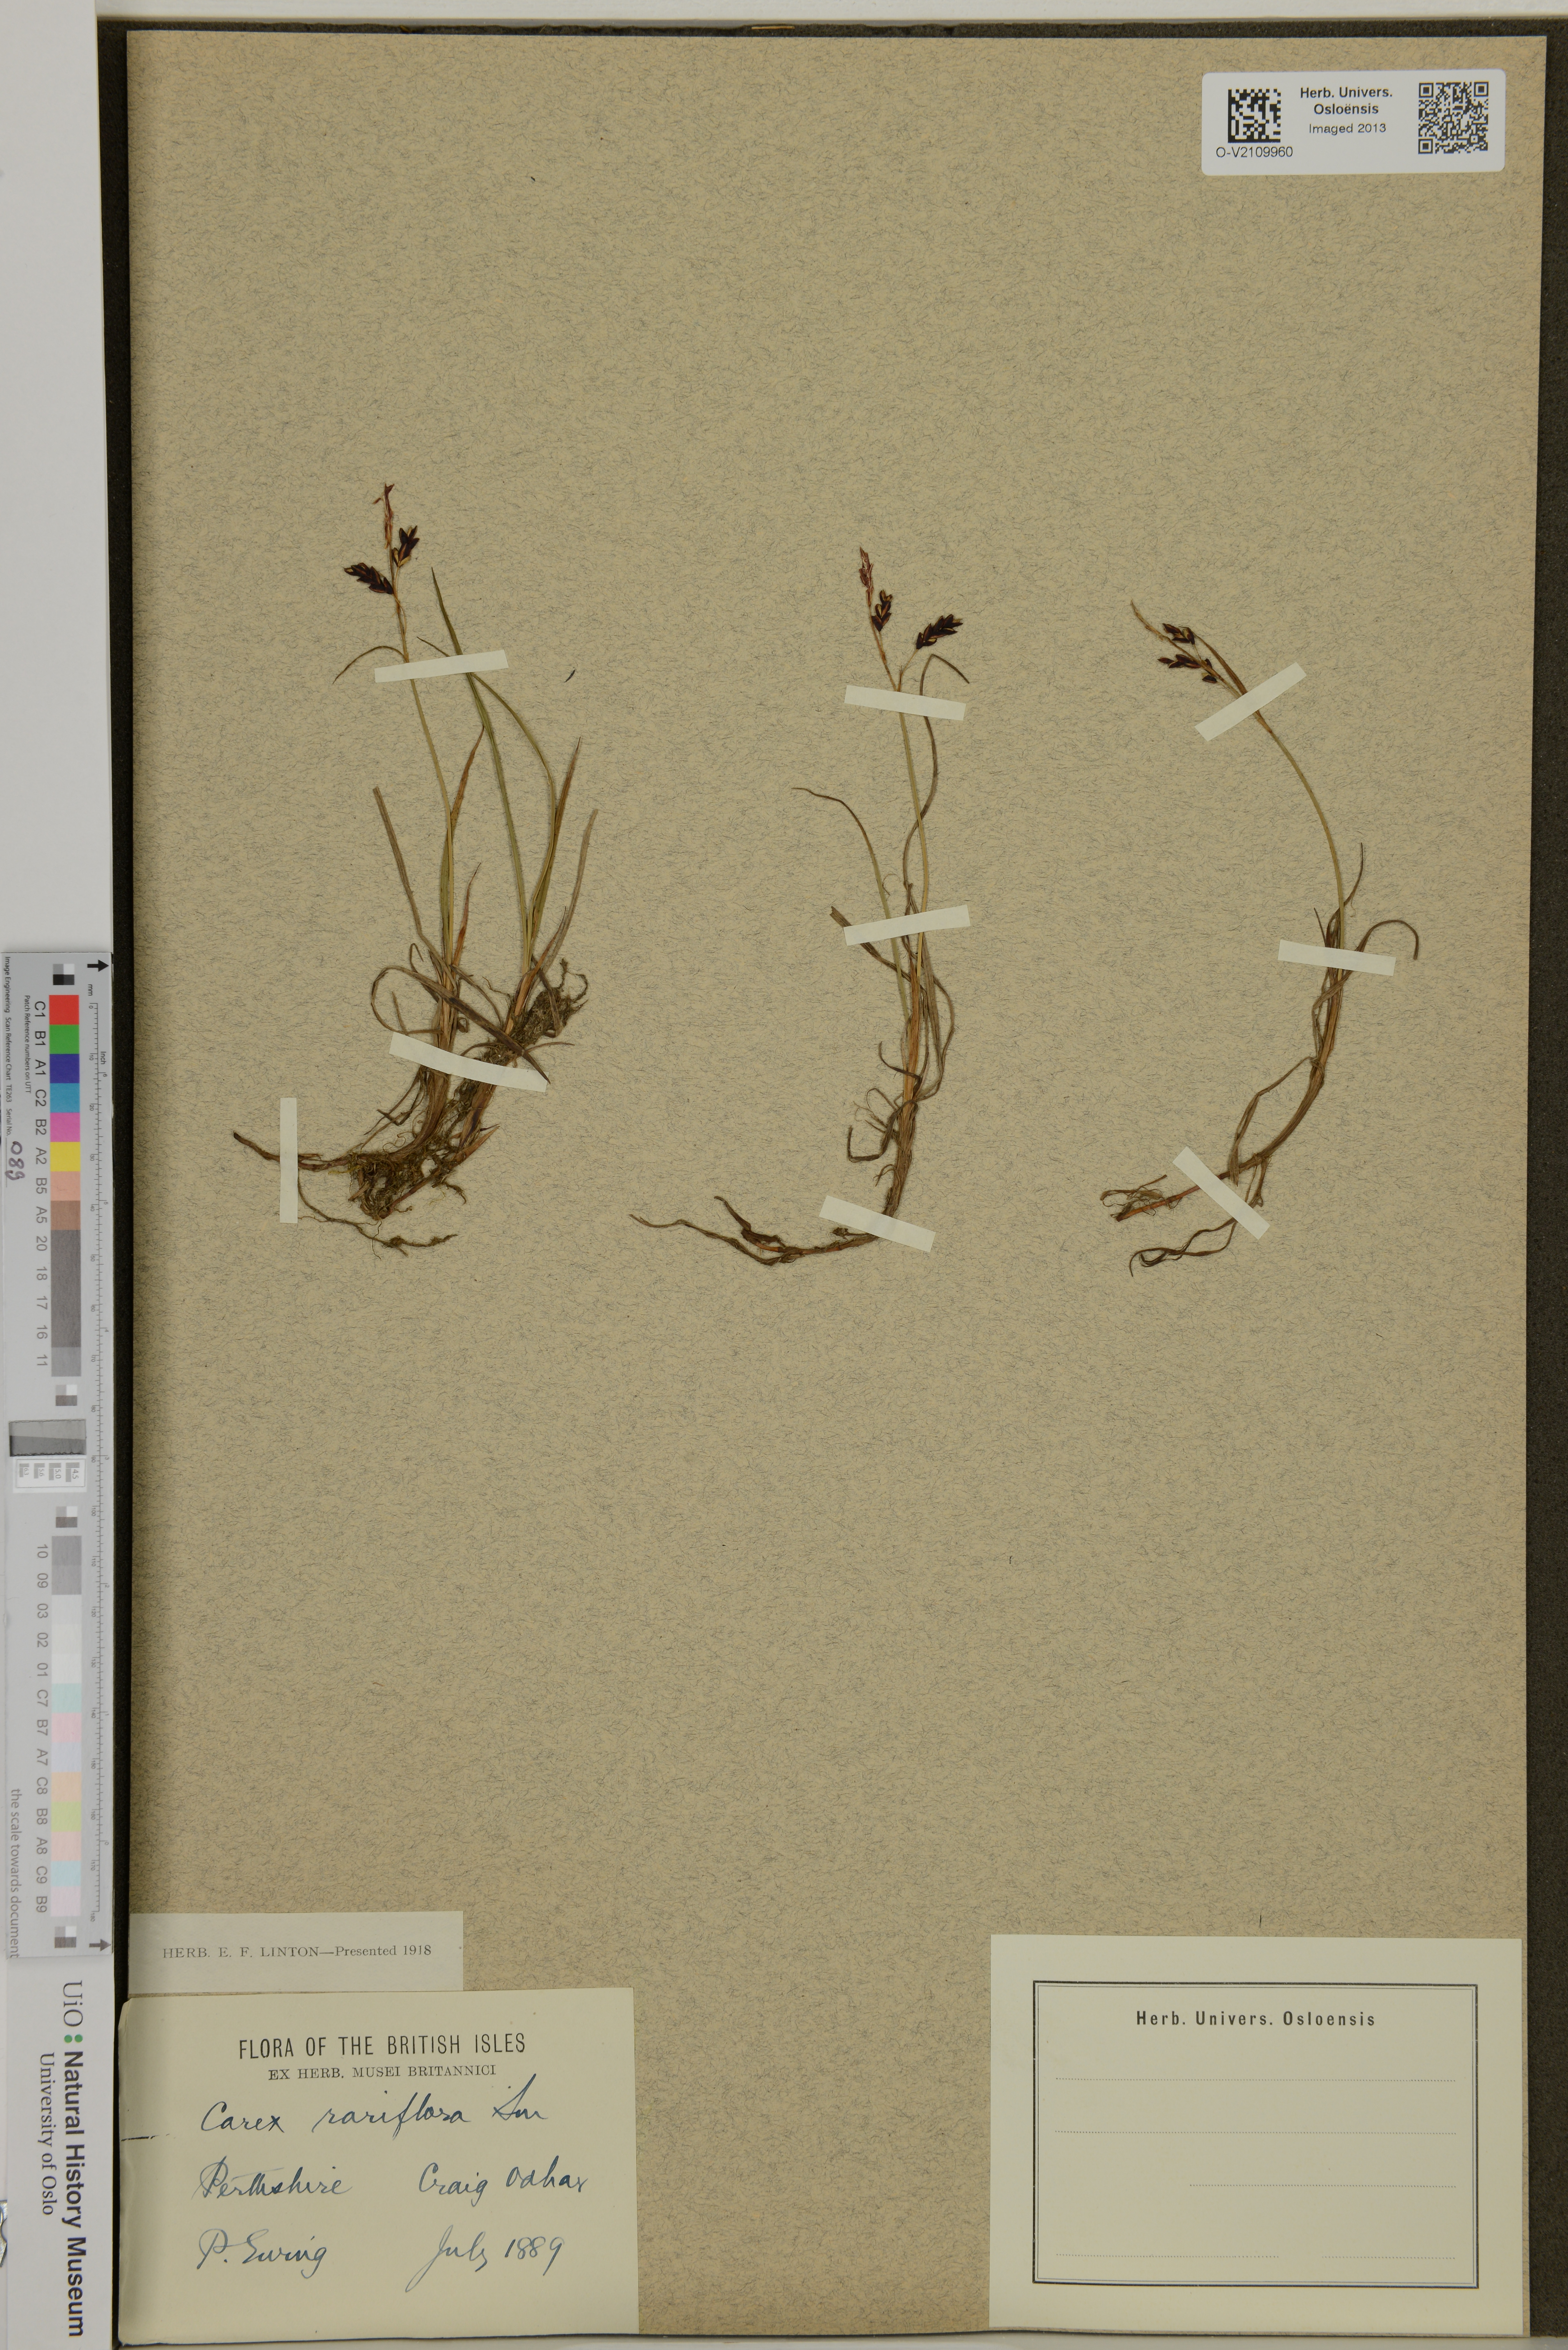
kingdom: Plantae
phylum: Tracheophyta
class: Liliopsida
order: Poales
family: Cyperaceae
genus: Carex
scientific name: Carex rariflora
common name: Loose-flowered alpine sedge
